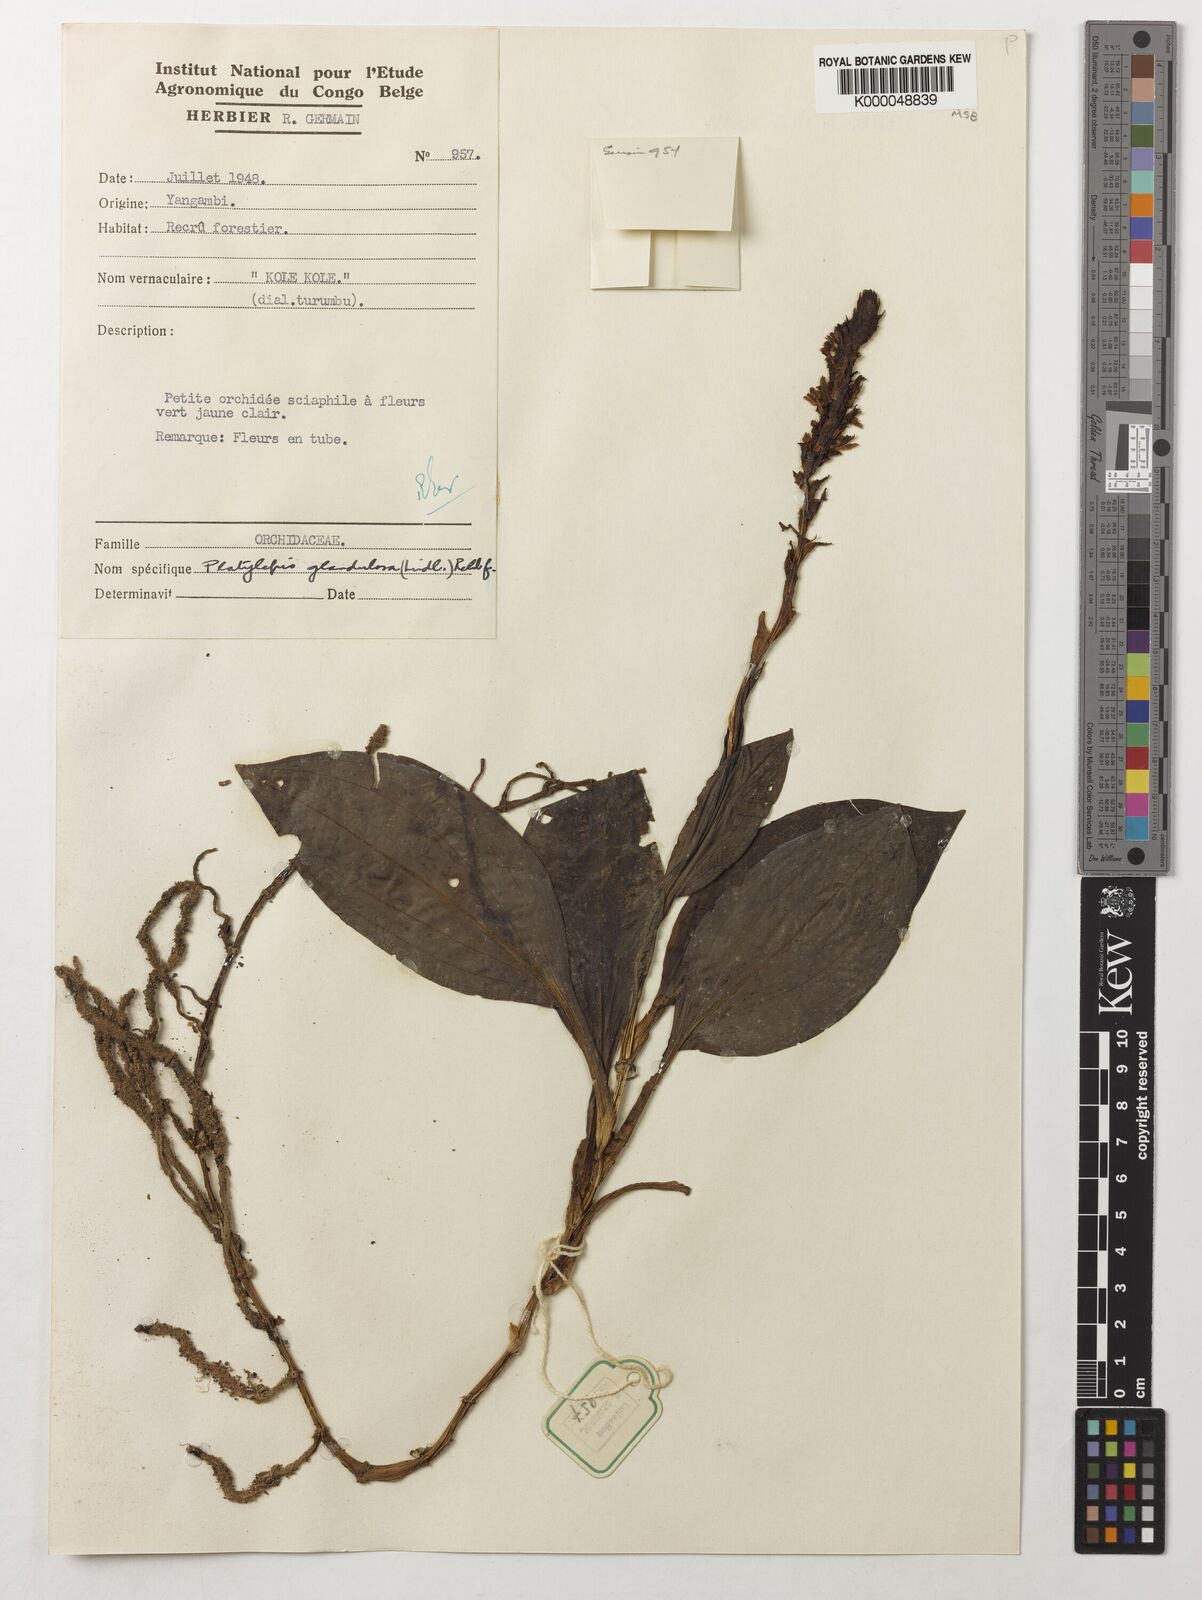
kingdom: Plantae
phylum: Tracheophyta
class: Liliopsida
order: Asparagales
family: Orchidaceae
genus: Platylepis
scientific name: Platylepis glandulosa
